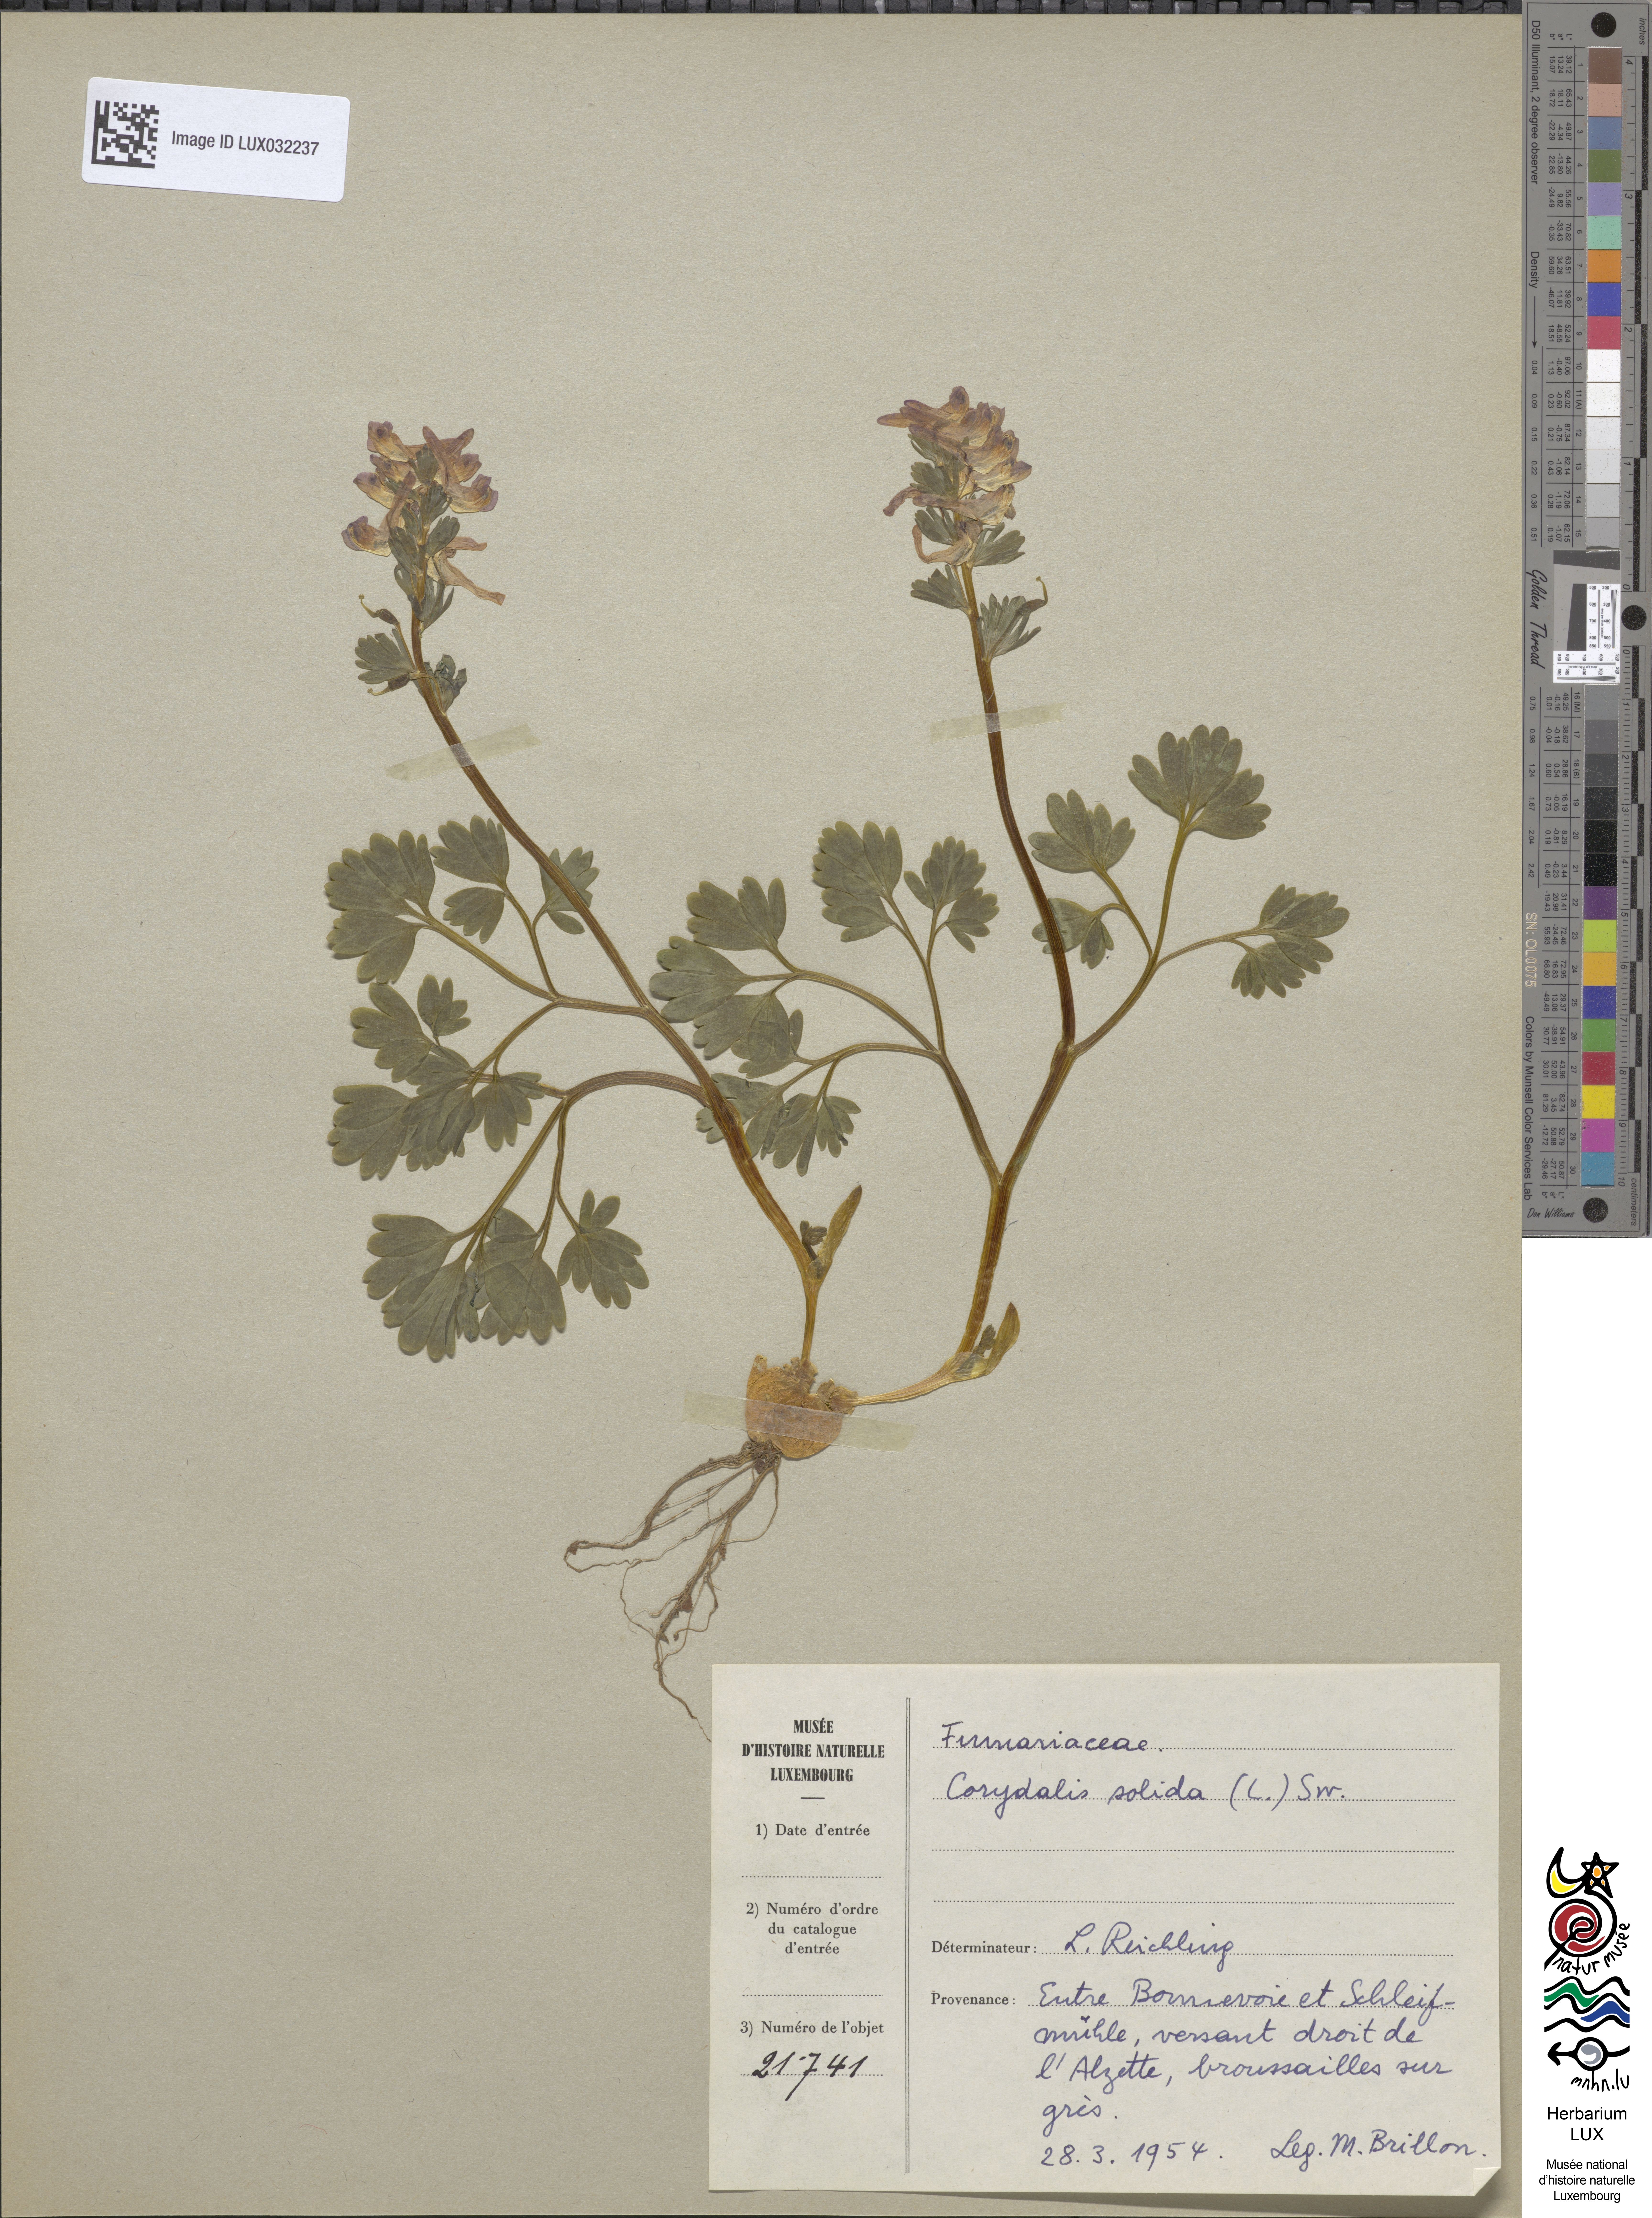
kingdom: Plantae
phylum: Tracheophyta
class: Magnoliopsida
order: Ranunculales
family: Papaveraceae
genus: Corydalis
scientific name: Corydalis solida
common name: Bird-in-a-bush
